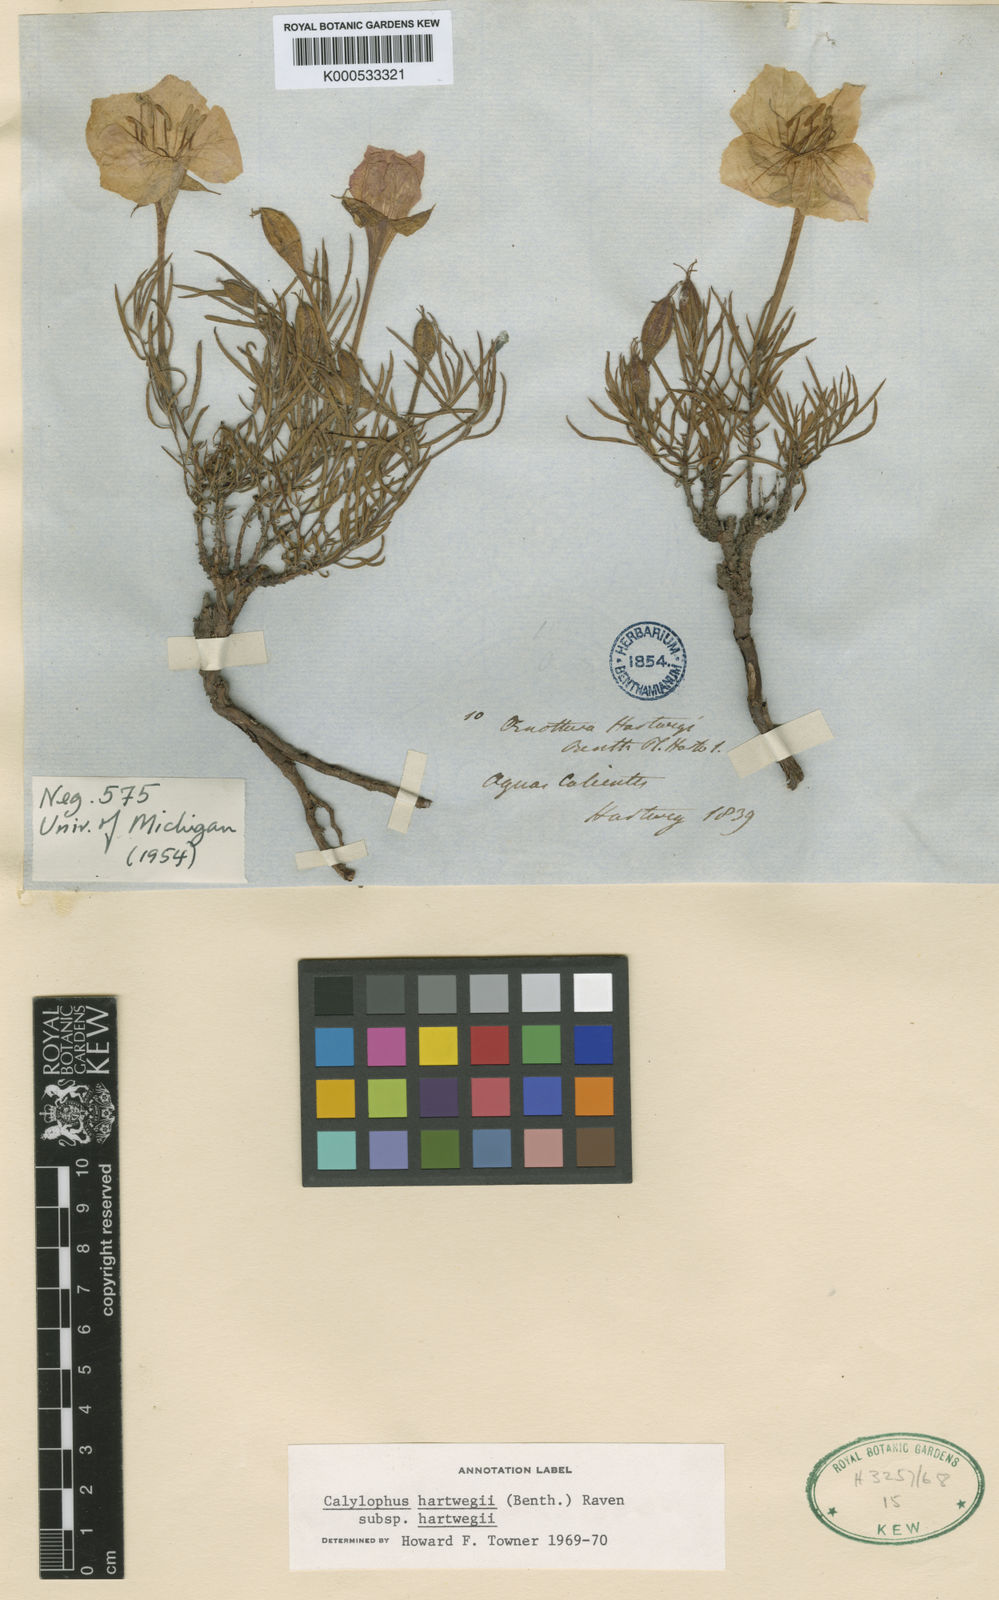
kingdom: Plantae
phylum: Tracheophyta
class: Magnoliopsida
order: Myrtales
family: Onagraceae
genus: Oenothera
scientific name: Oenothera hartwegii
